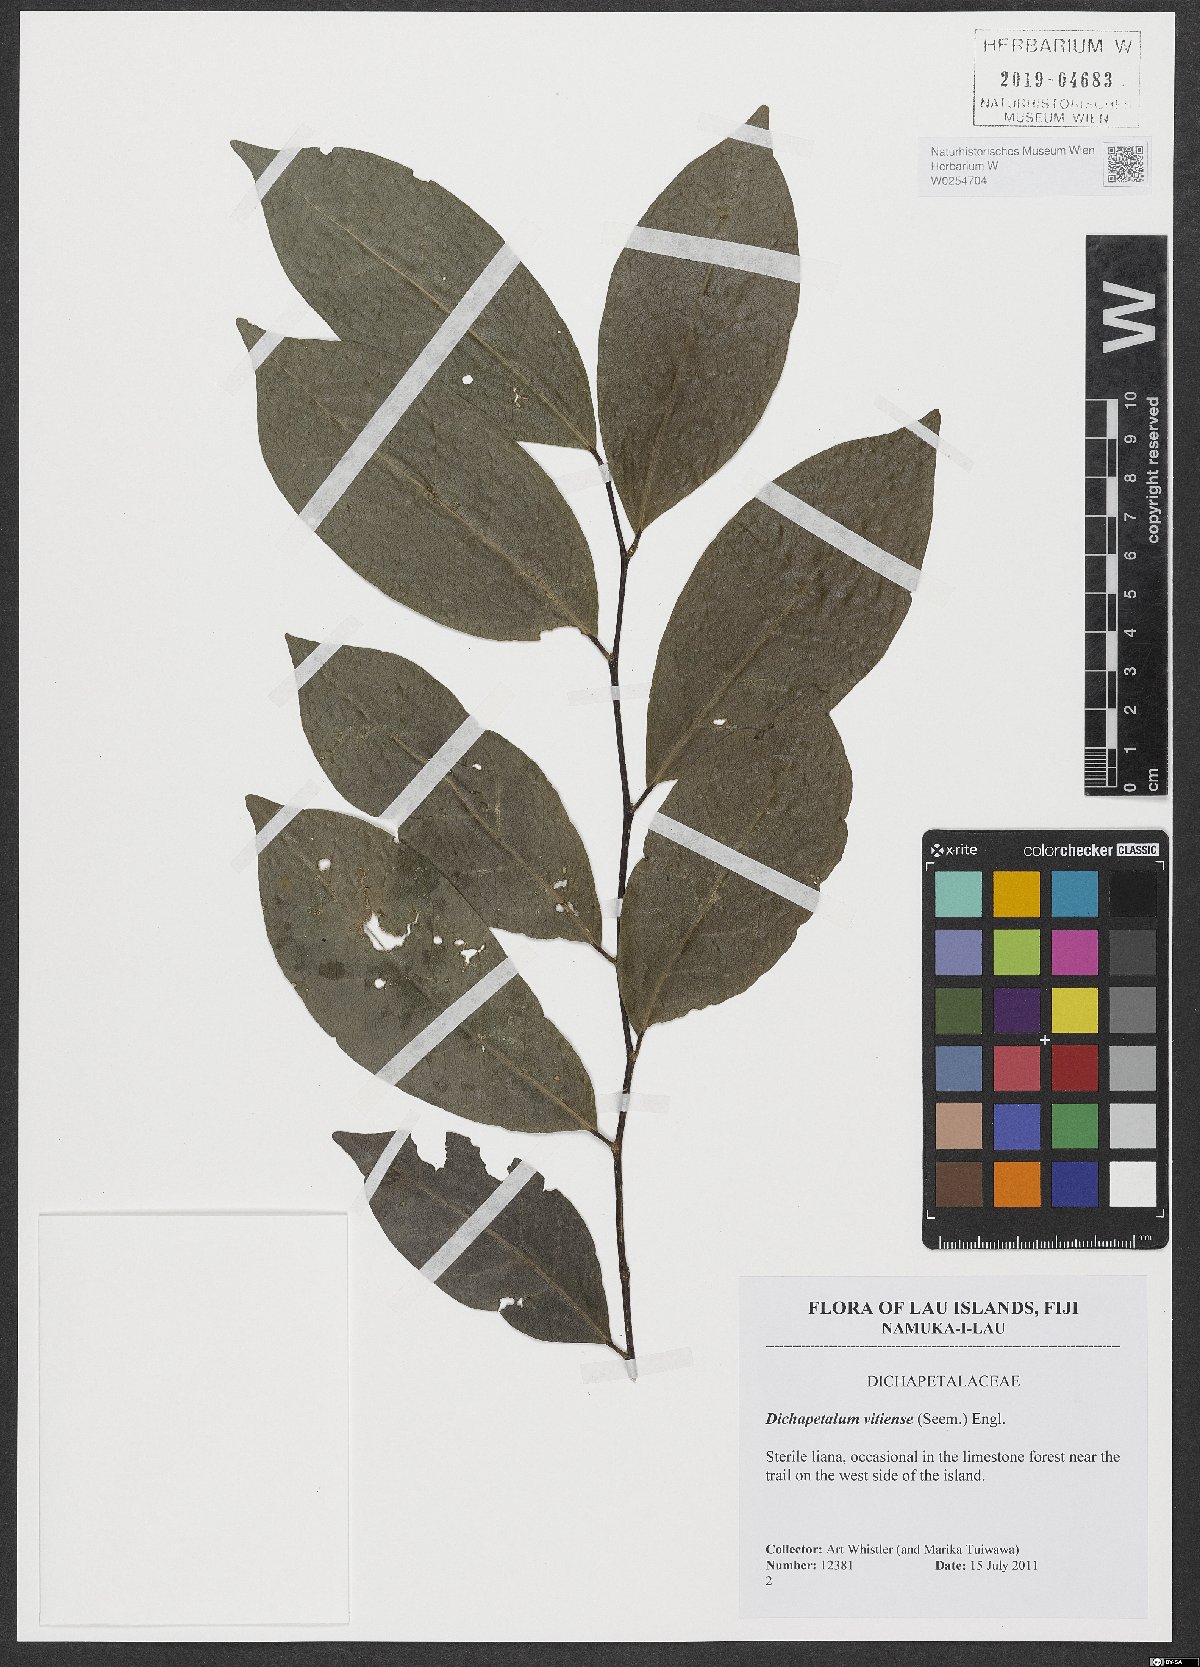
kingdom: Plantae
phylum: Tracheophyta
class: Magnoliopsida
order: Malpighiales
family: Dichapetalaceae
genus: Dichapetalum
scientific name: Dichapetalum vitiense
